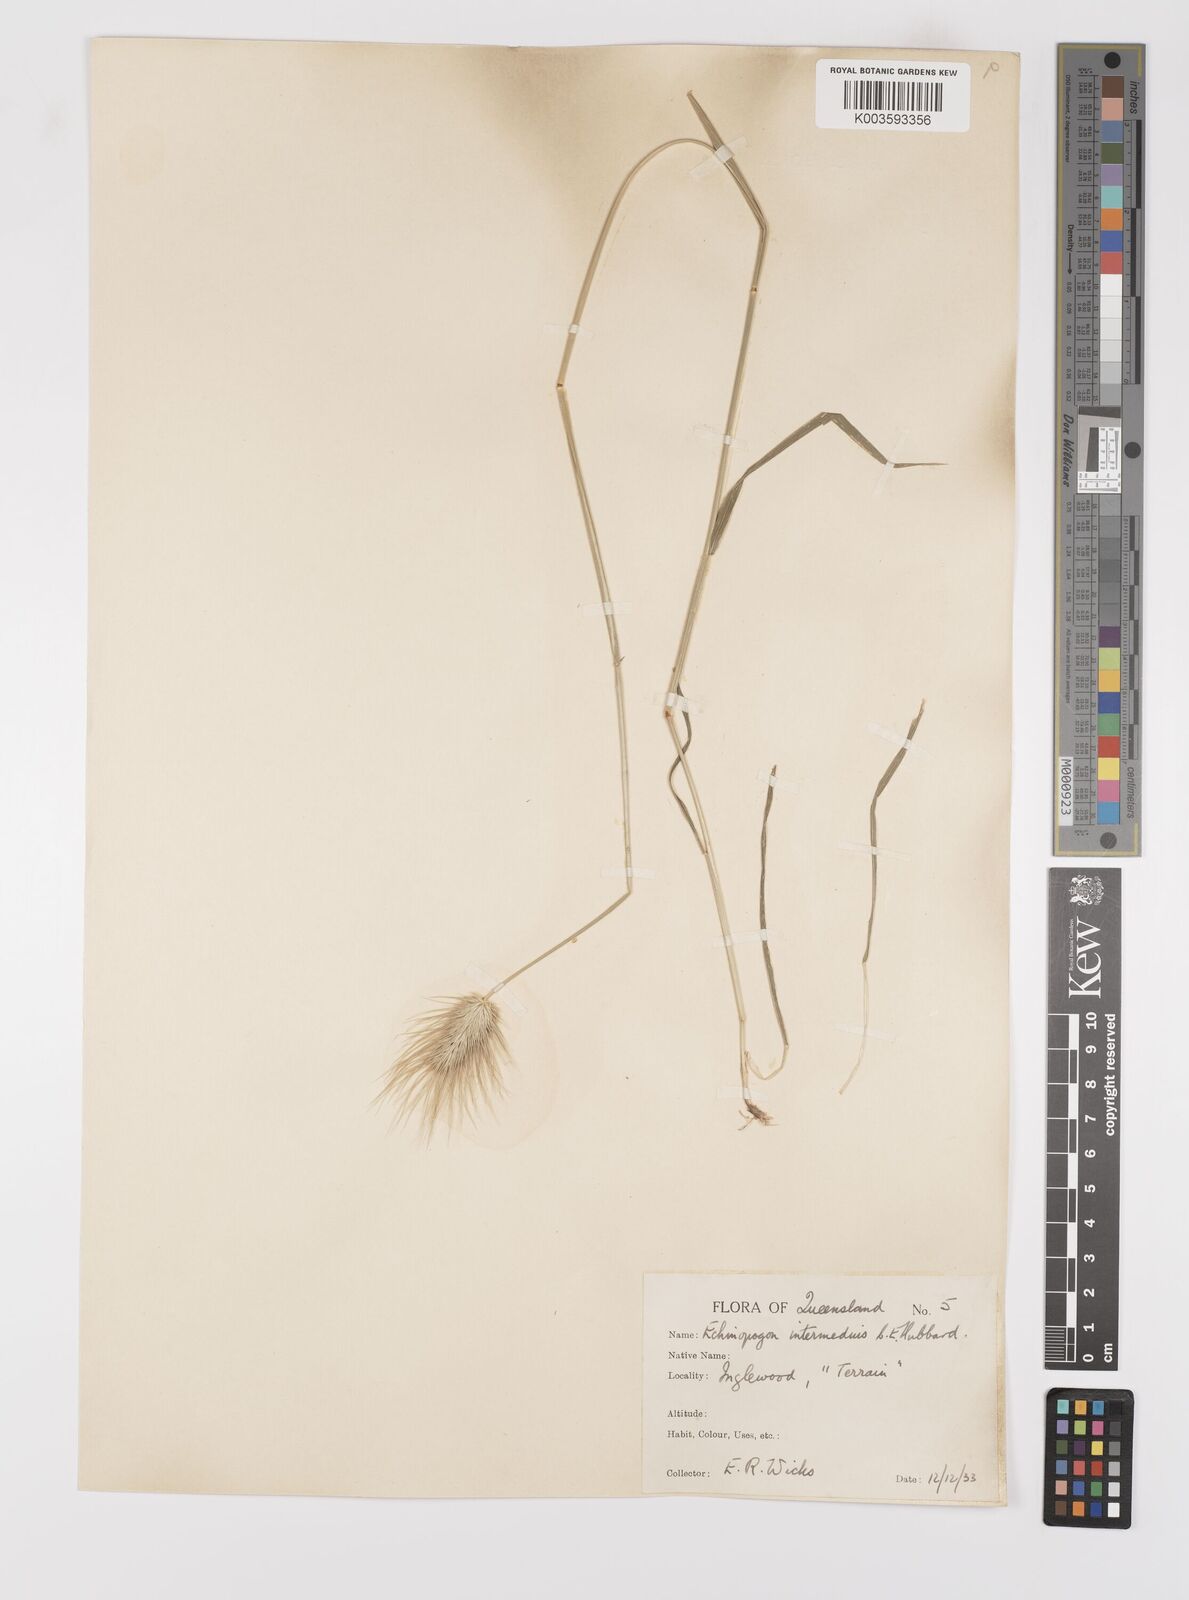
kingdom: Plantae
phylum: Tracheophyta
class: Liliopsida
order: Poales
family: Poaceae
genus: Echinopogon
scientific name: Echinopogon intermedius
